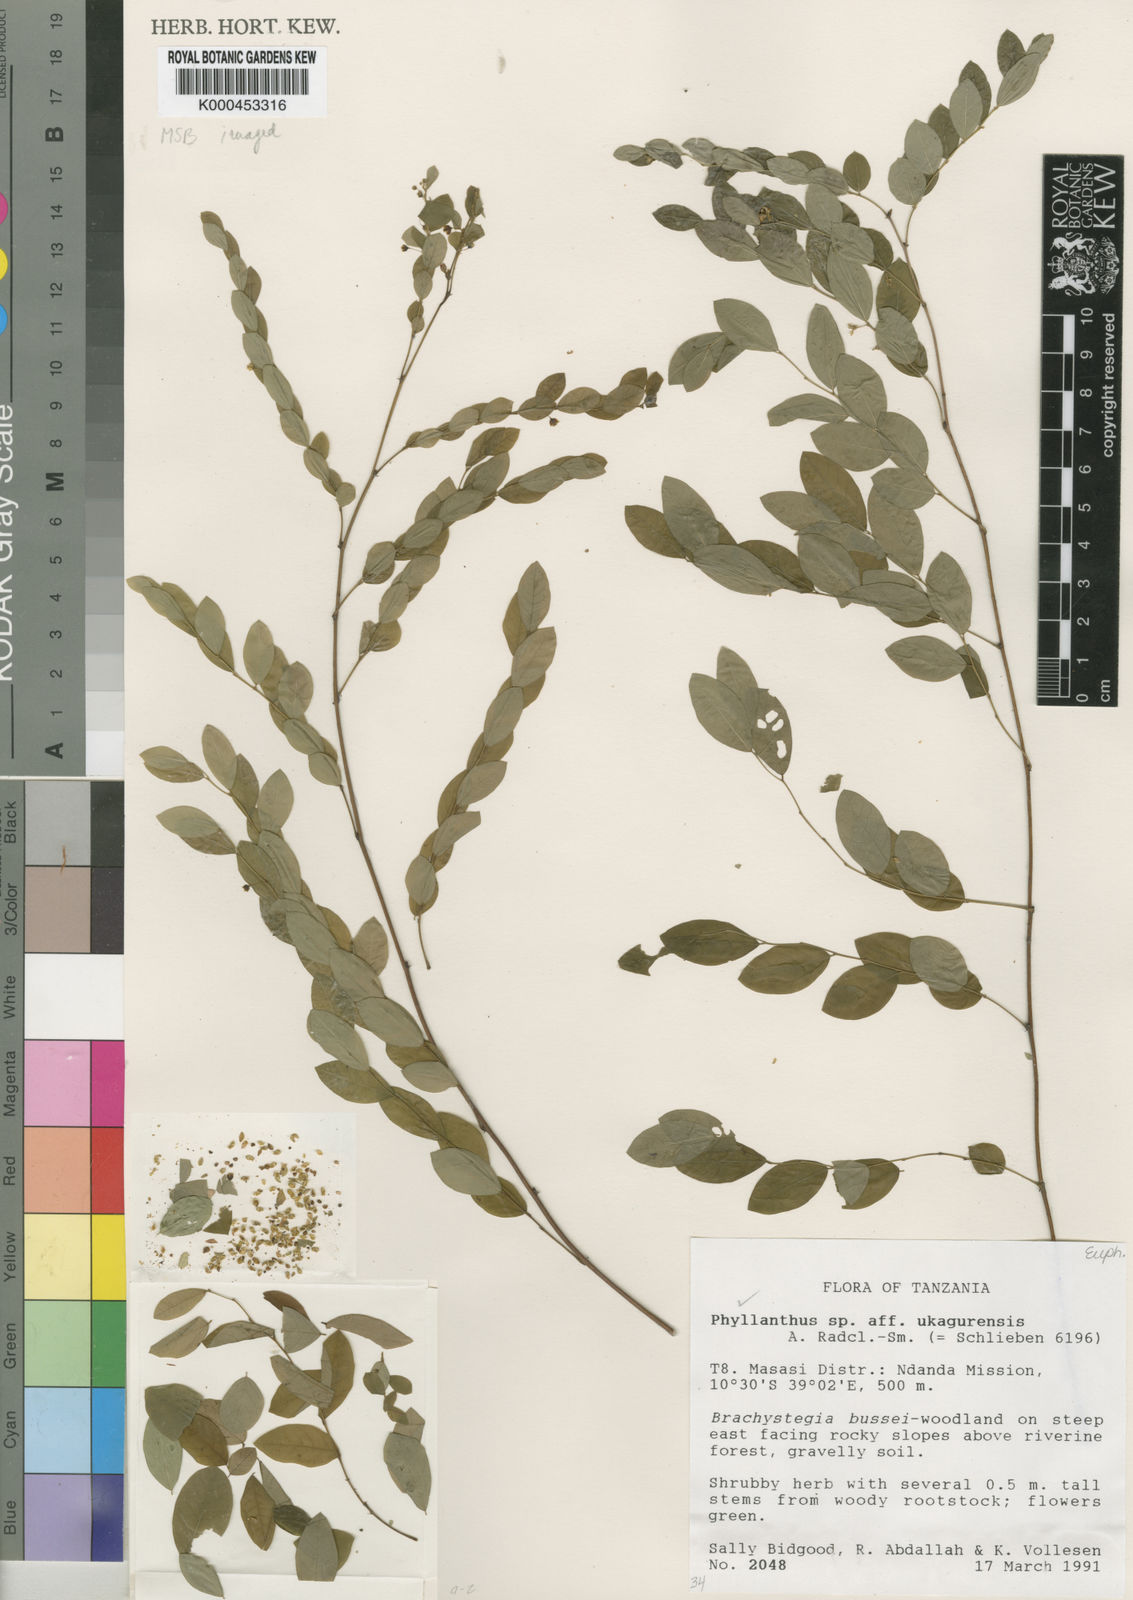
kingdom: Plantae
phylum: Tracheophyta
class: Magnoliopsida
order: Malpighiales
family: Phyllanthaceae
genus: Phyllanthus
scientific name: Phyllanthus
